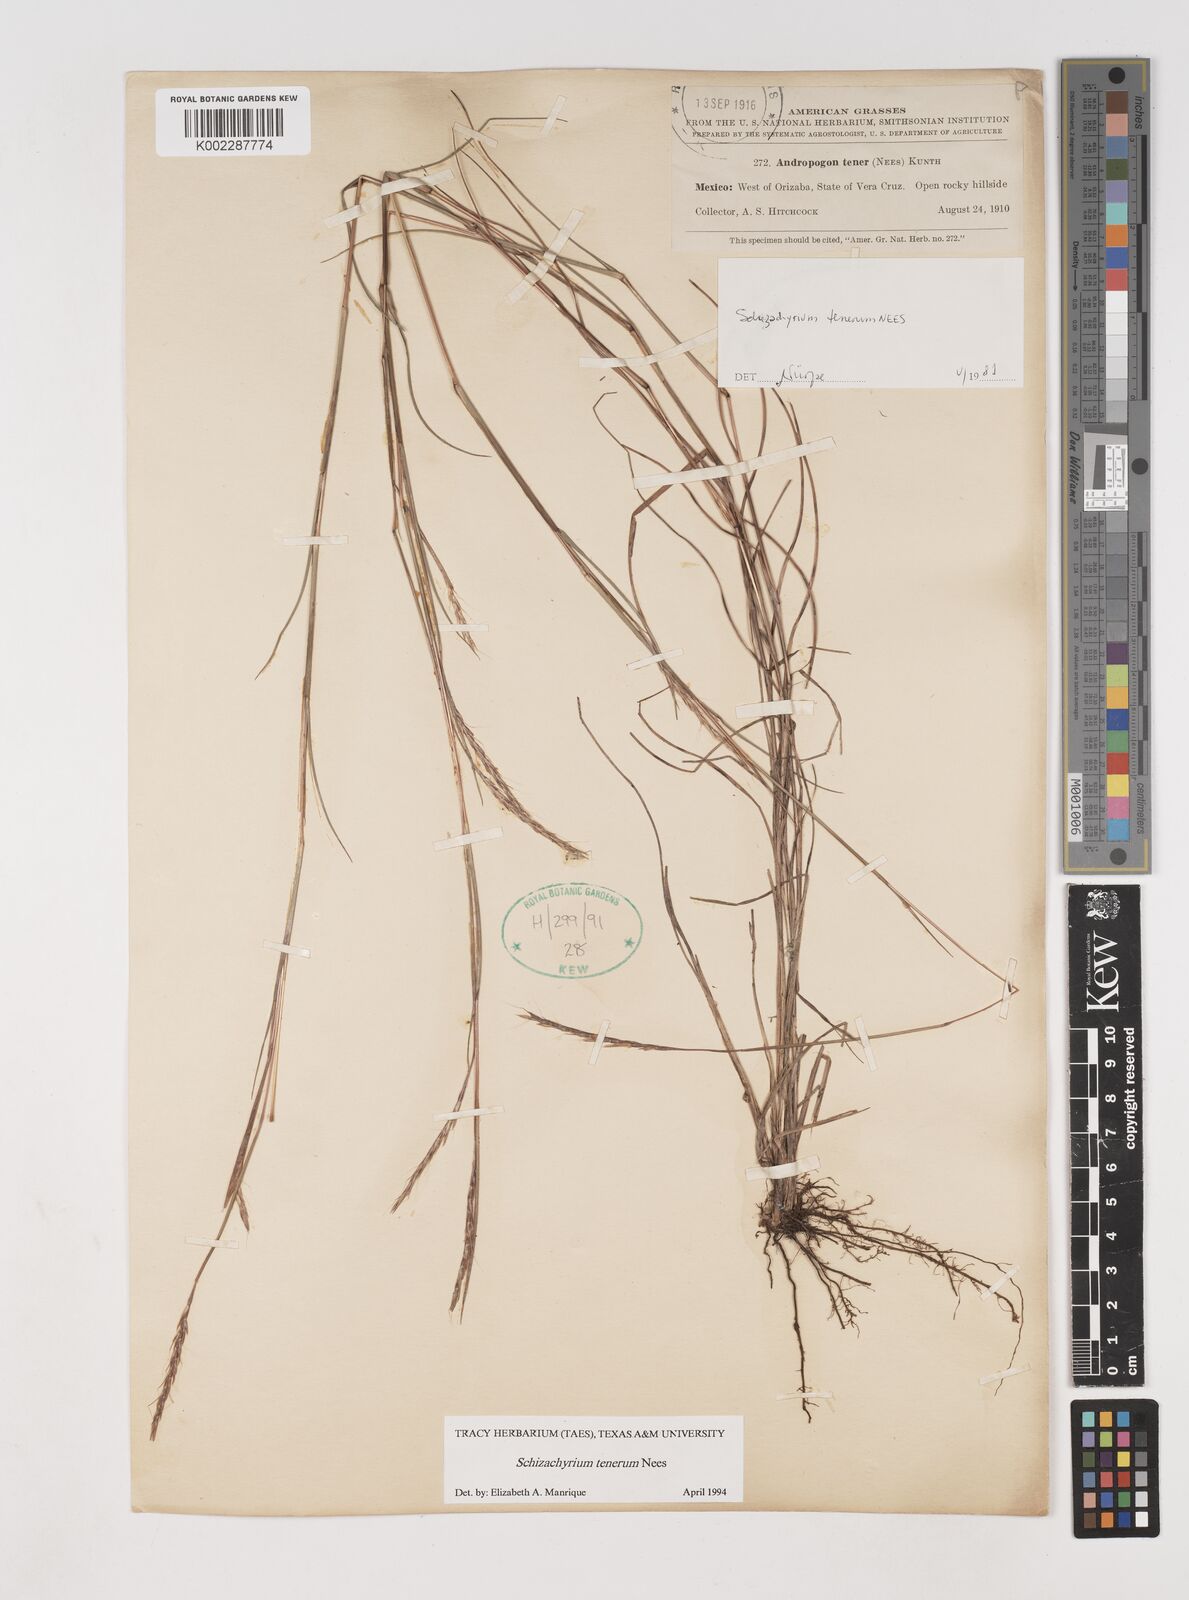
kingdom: Plantae
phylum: Tracheophyta
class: Liliopsida
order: Poales
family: Poaceae
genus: Andropogon
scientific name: Andropogon tener
